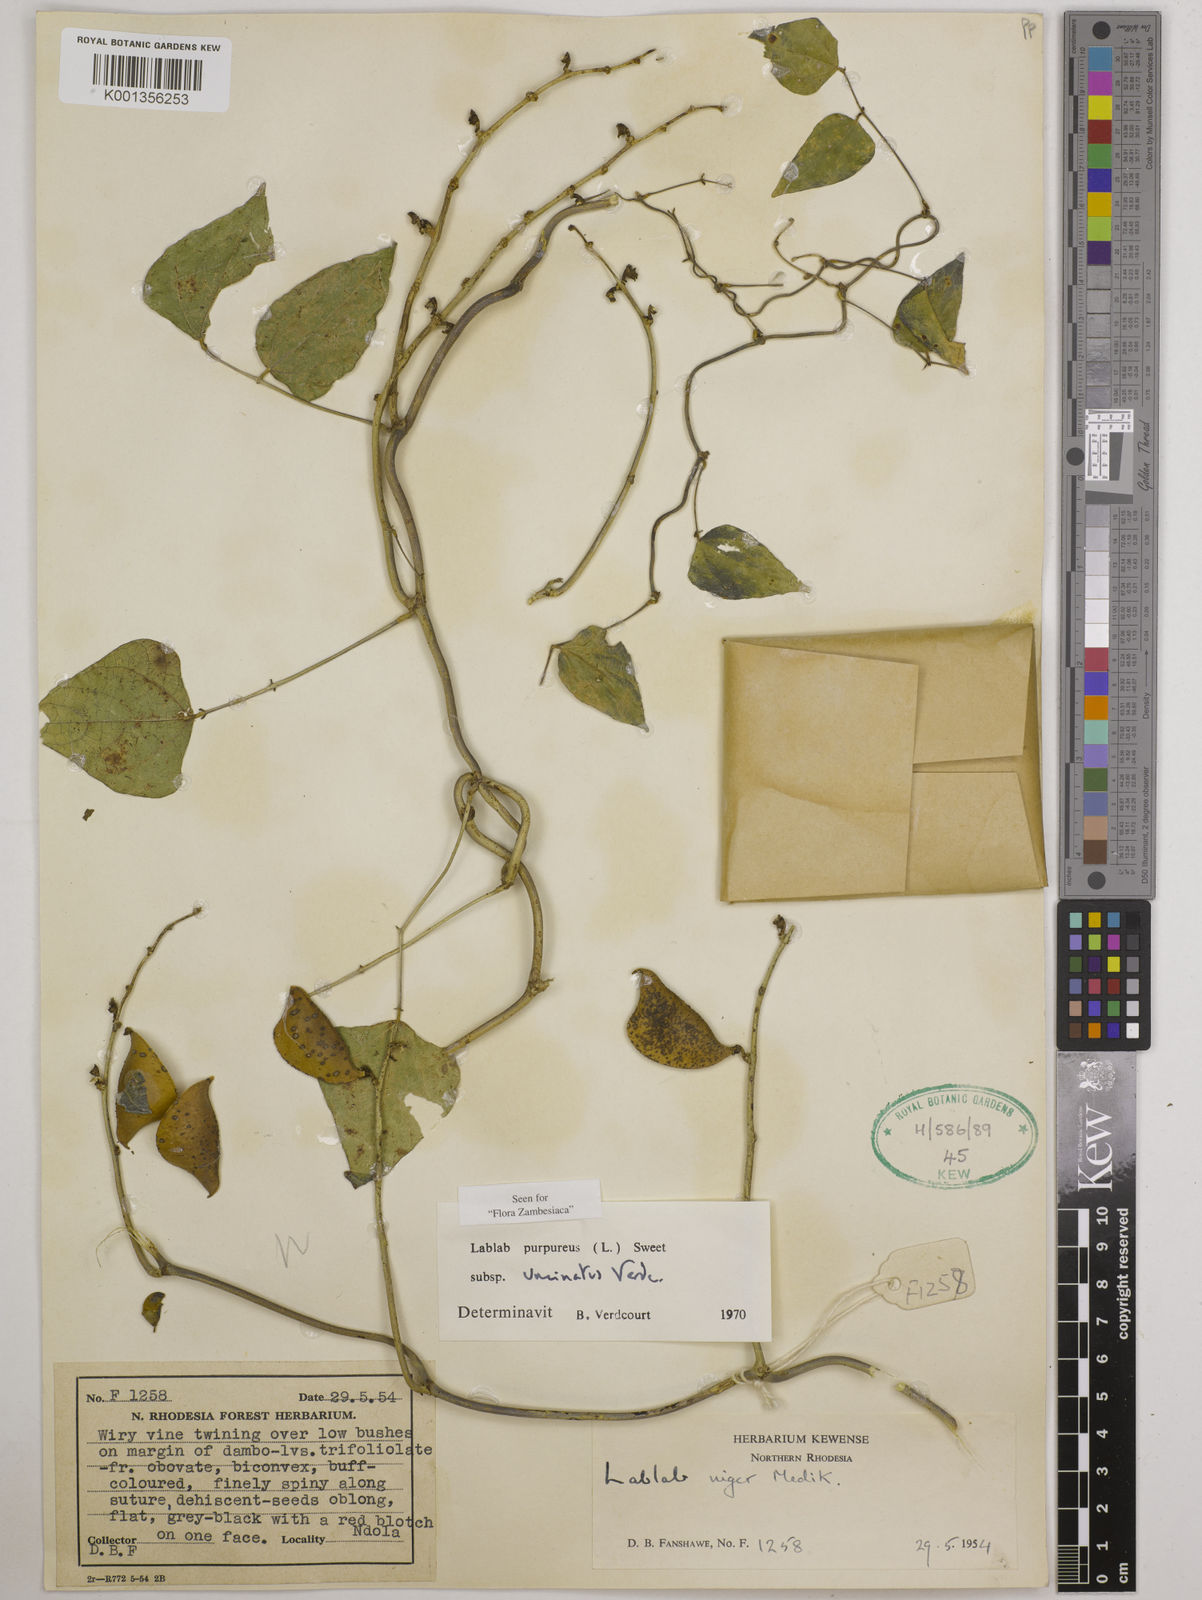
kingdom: Plantae
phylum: Tracheophyta
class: Magnoliopsida
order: Fabales
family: Fabaceae
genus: Lablab
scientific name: Lablab purpureus
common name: Lablab-bean
